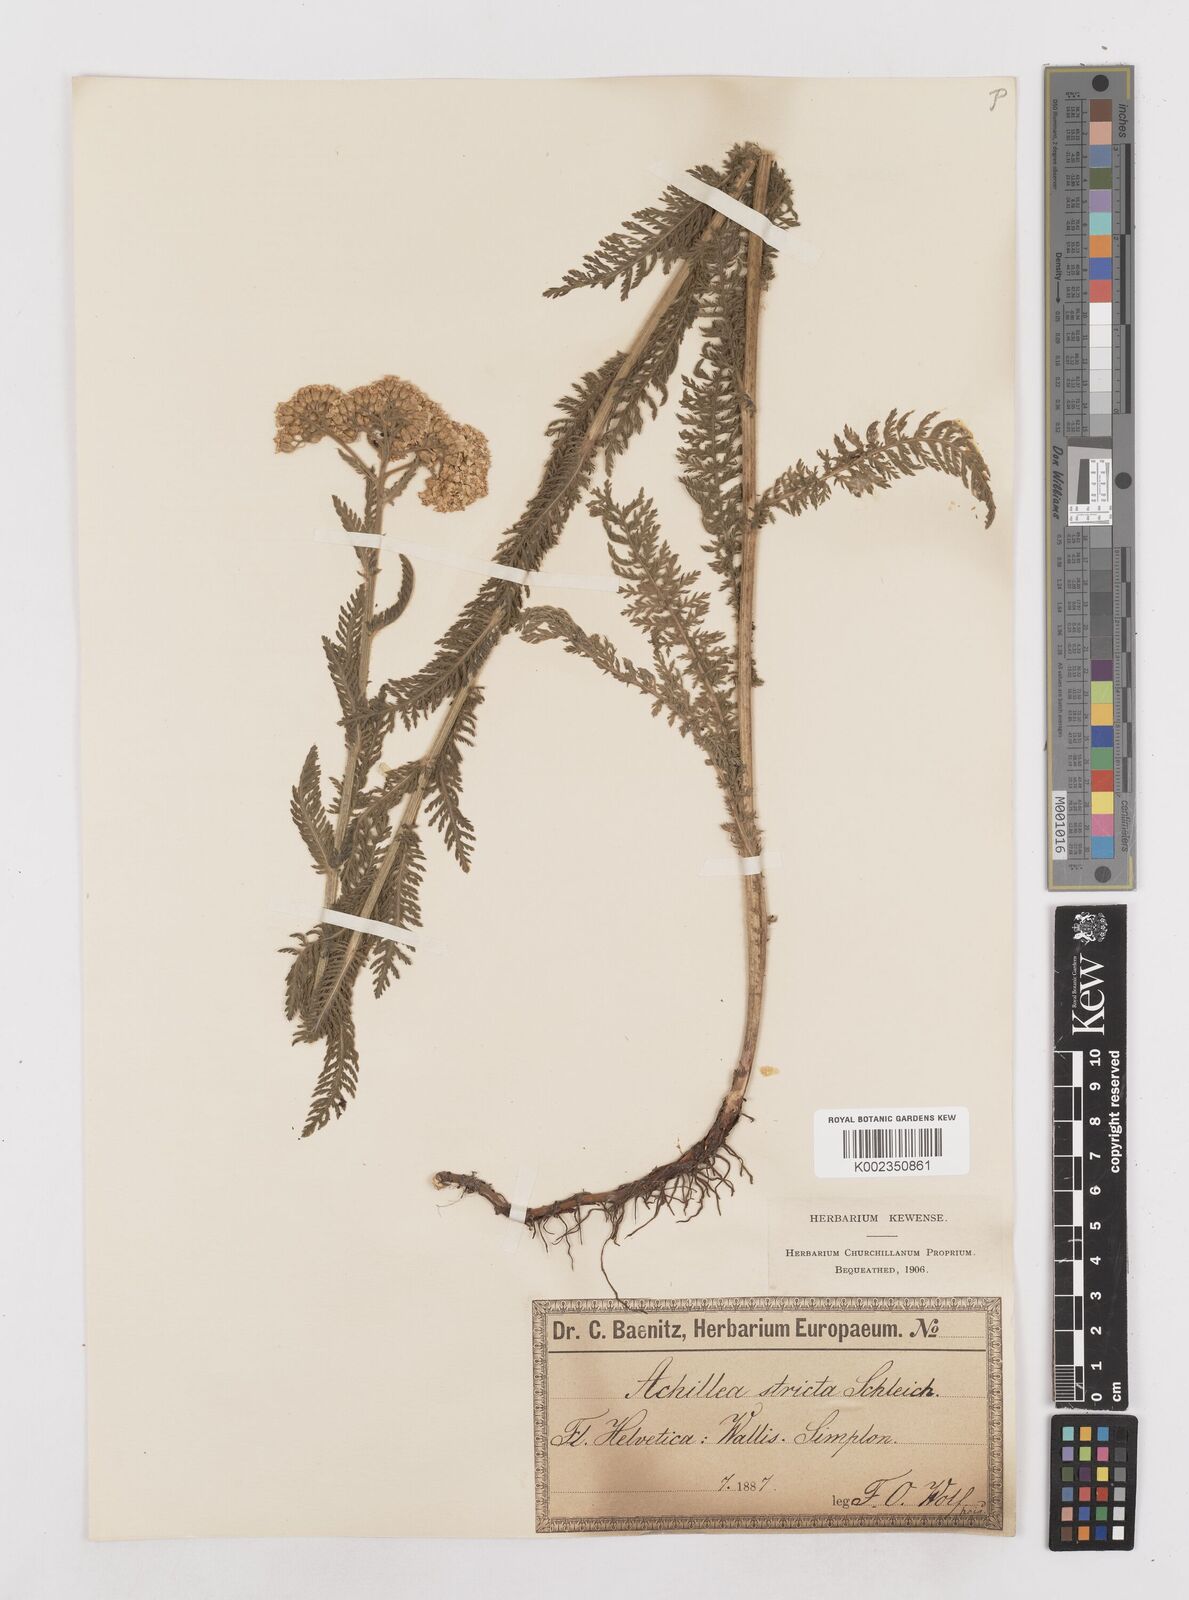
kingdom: Plantae
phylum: Tracheophyta
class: Magnoliopsida
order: Asterales
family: Asteraceae
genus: Achillea
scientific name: Achillea distans
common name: Tall yarrow
